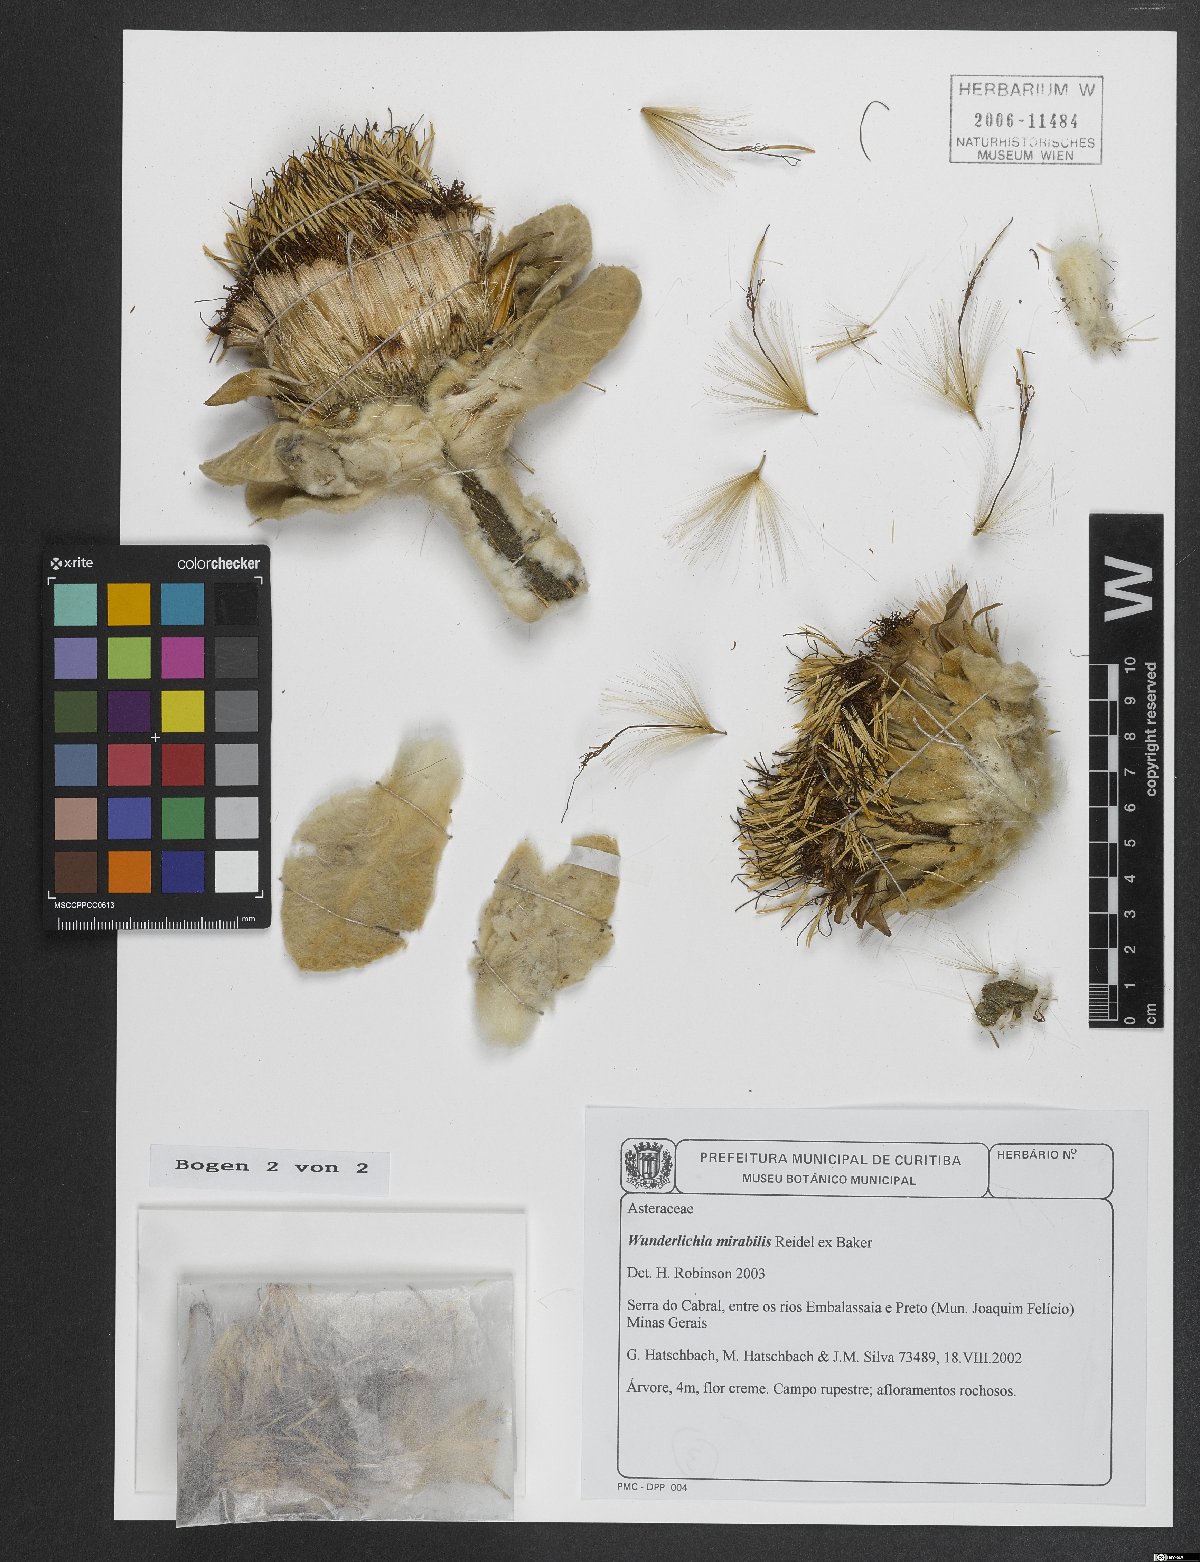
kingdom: Plantae
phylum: Tracheophyta
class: Magnoliopsida
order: Asterales
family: Asteraceae
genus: Wunderlichia
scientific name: Wunderlichia mirabilis
